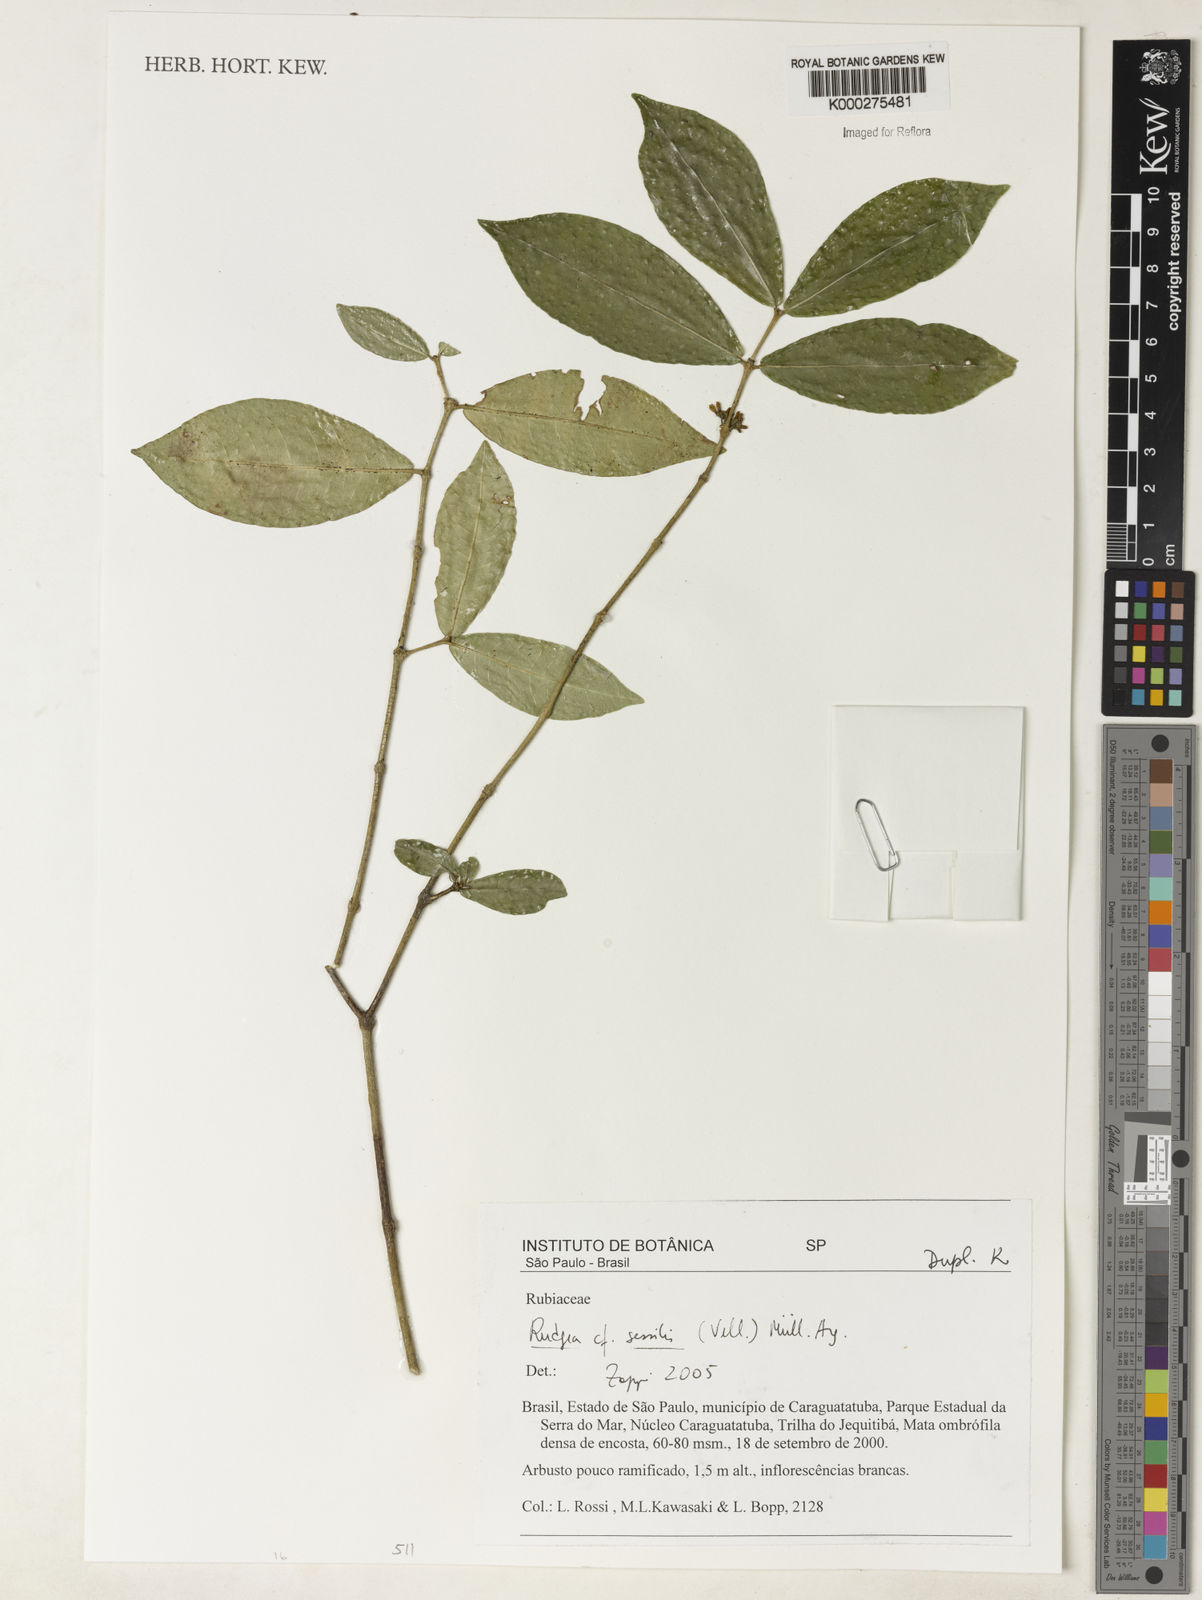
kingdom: Plantae
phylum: Tracheophyta
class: Magnoliopsida
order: Gentianales
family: Rubiaceae
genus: Rudgea
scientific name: Rudgea sessilis
